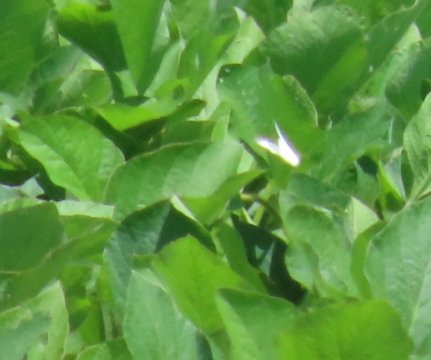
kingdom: Animalia
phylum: Arthropoda
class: Insecta
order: Lepidoptera
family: Pieridae
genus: Pieris
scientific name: Pieris rapae
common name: Cabbage White
